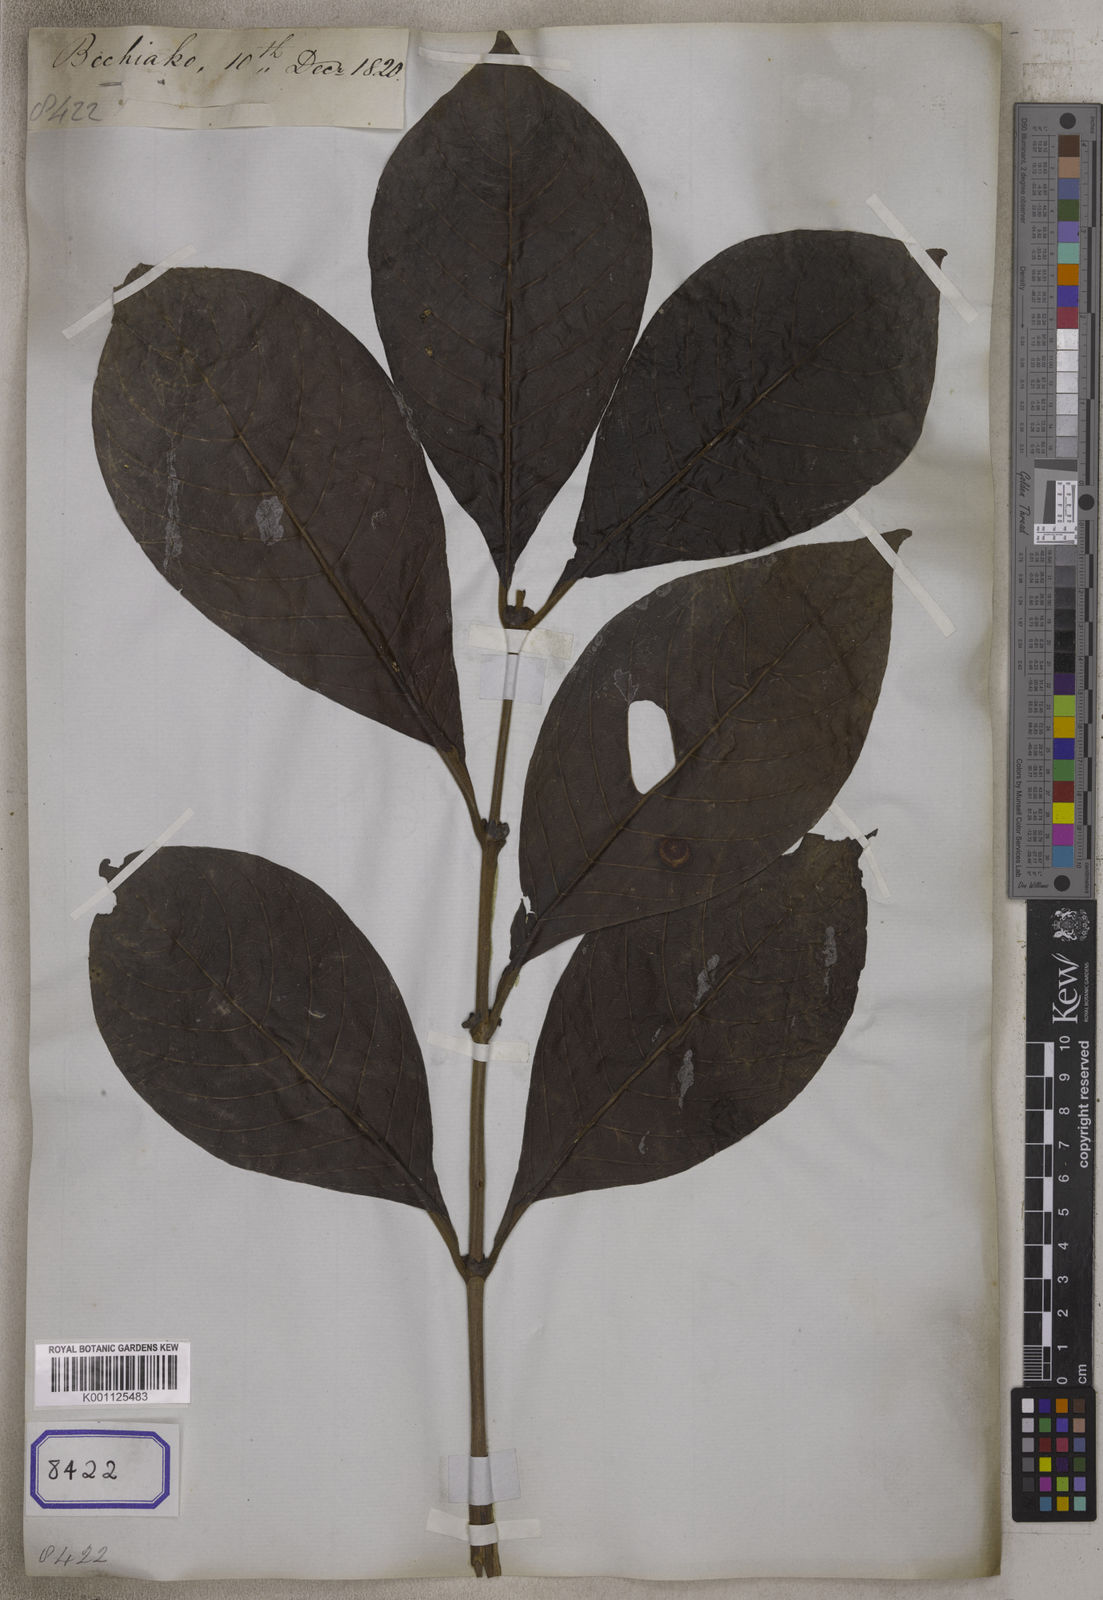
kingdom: Plantae
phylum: Tracheophyta
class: Magnoliopsida
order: Gentianales
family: Rubiaceae
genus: Morinda
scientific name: Morinda
